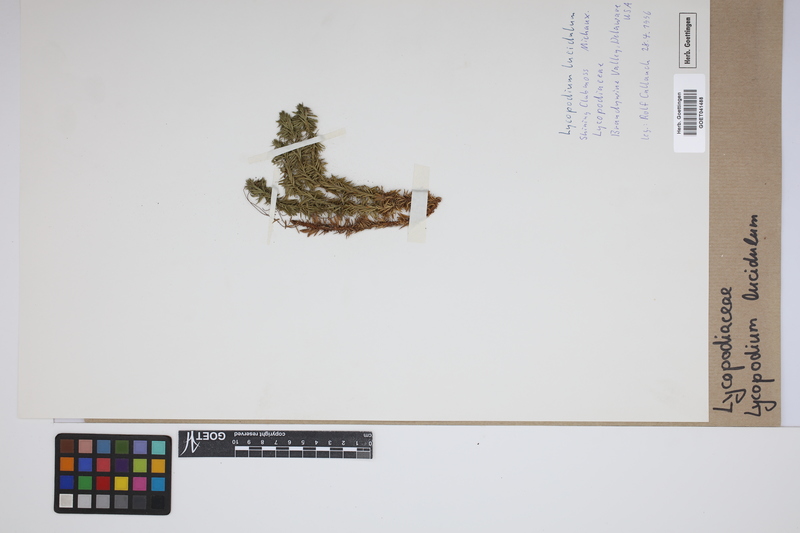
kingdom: Plantae
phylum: Tracheophyta
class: Lycopodiopsida
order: Lycopodiales
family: Lycopodiaceae
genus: Phlegmariurus
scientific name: Phlegmariurus linifolius
